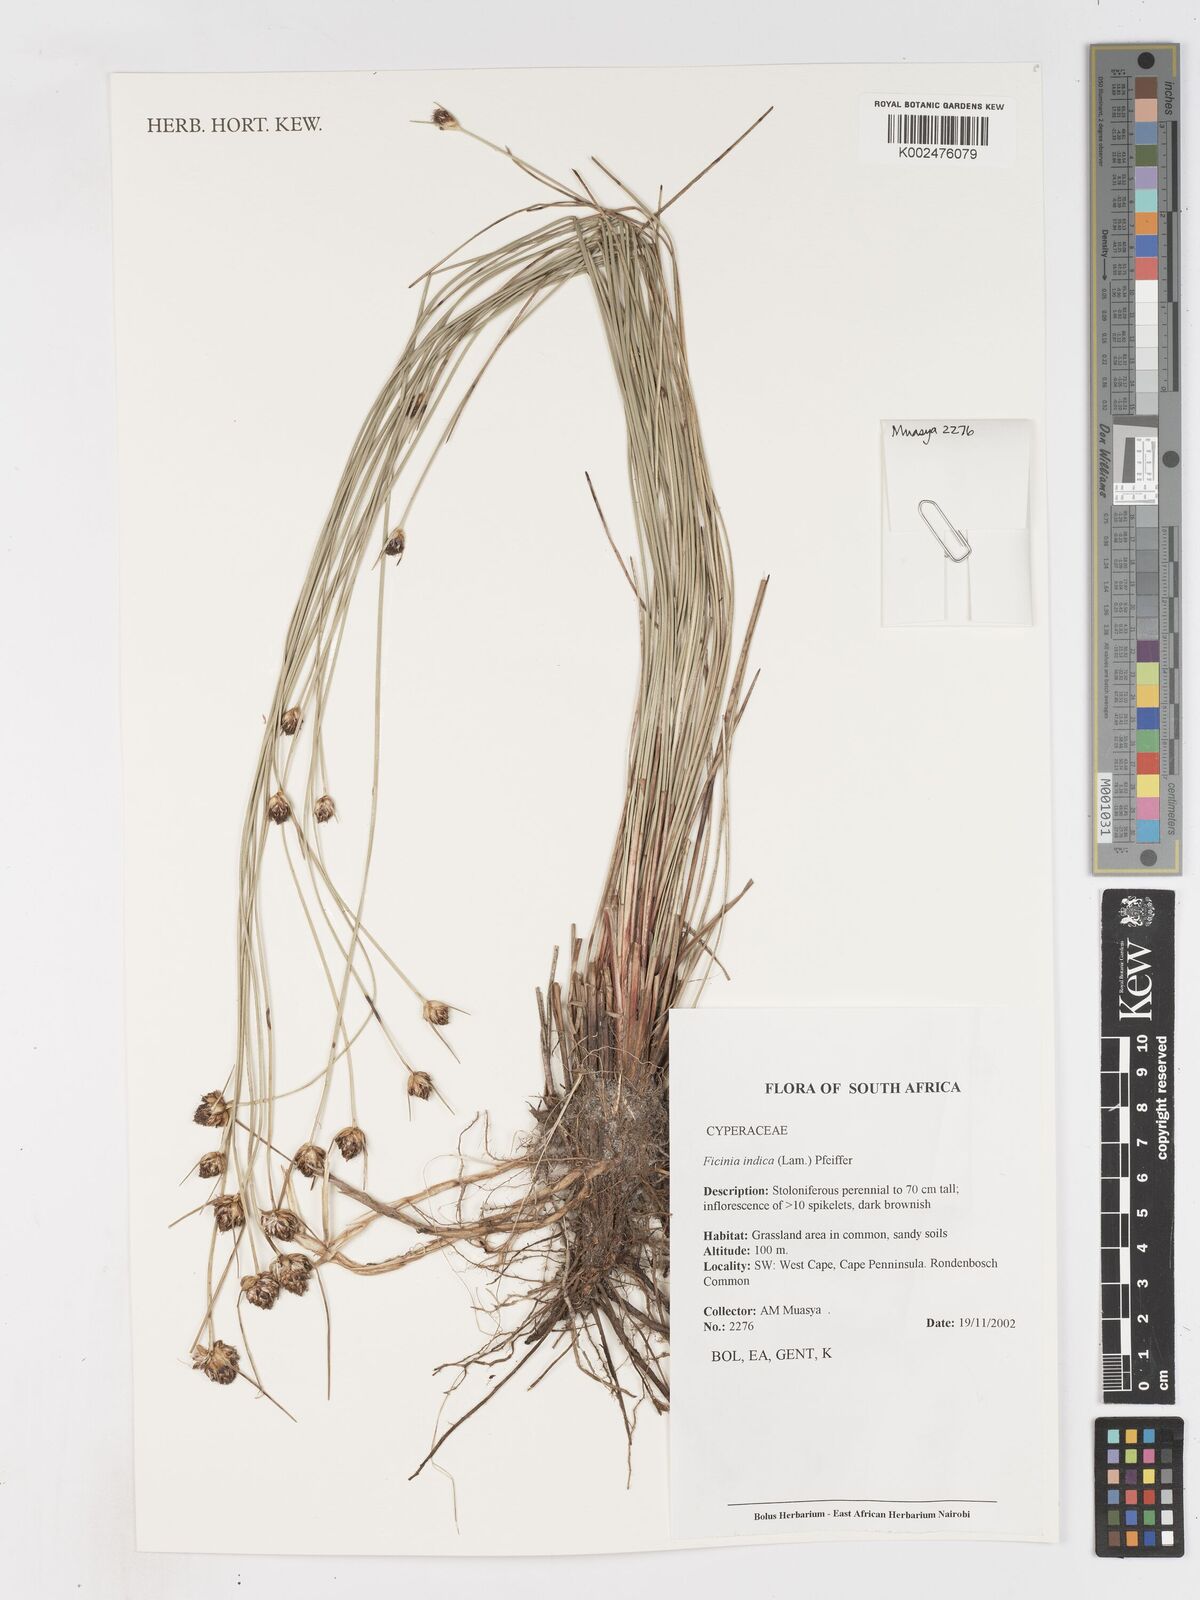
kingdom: Plantae
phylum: Tracheophyta
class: Liliopsida
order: Poales
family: Cyperaceae
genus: Ficinia
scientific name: Ficinia indica
